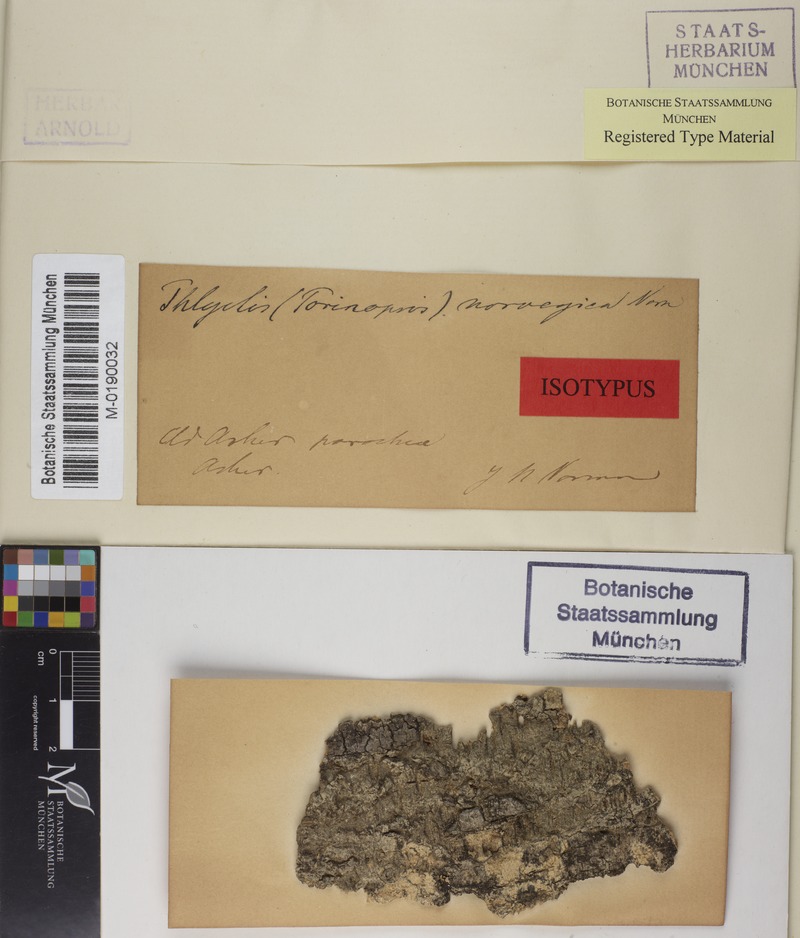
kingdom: Fungi
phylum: Ascomycota
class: Lecanoromycetes
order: Ostropales
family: Thelenellaceae
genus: Thelenella
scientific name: Thelenella modesta
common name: Warty wax-lichen
